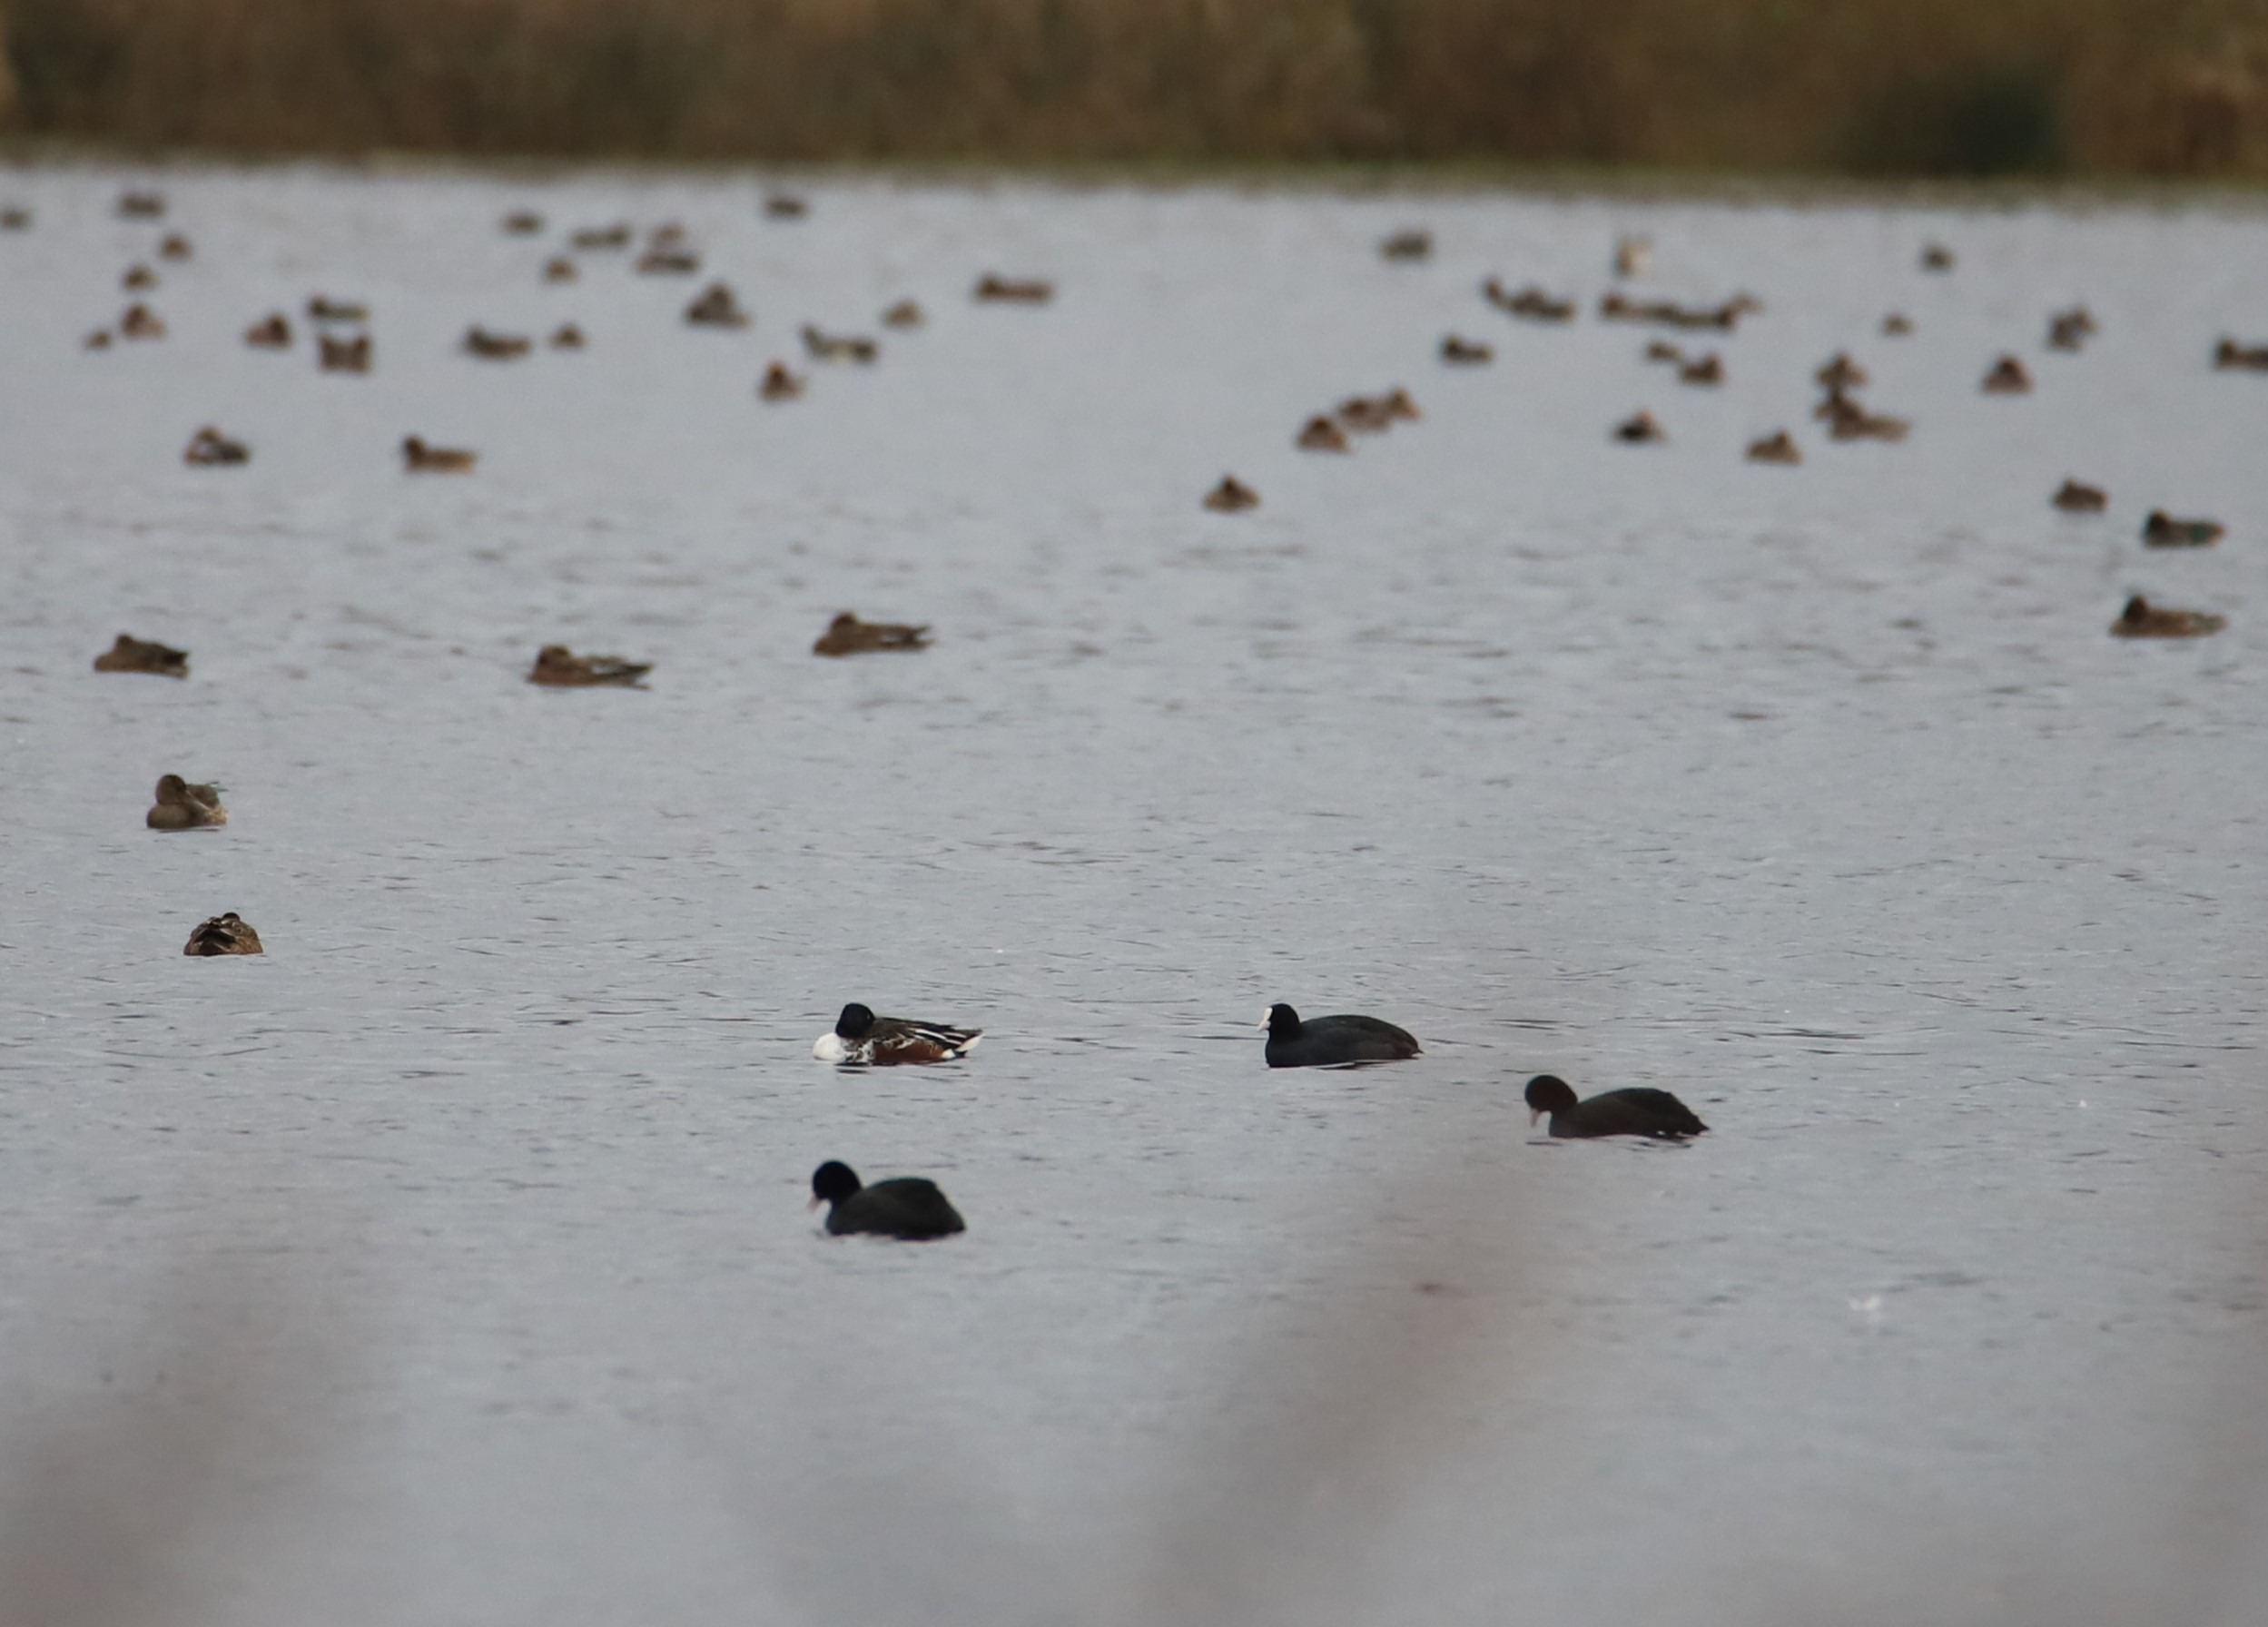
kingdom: Animalia
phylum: Chordata
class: Aves
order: Anseriformes
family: Anatidae
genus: Spatula
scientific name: Spatula clypeata
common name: Skeand
